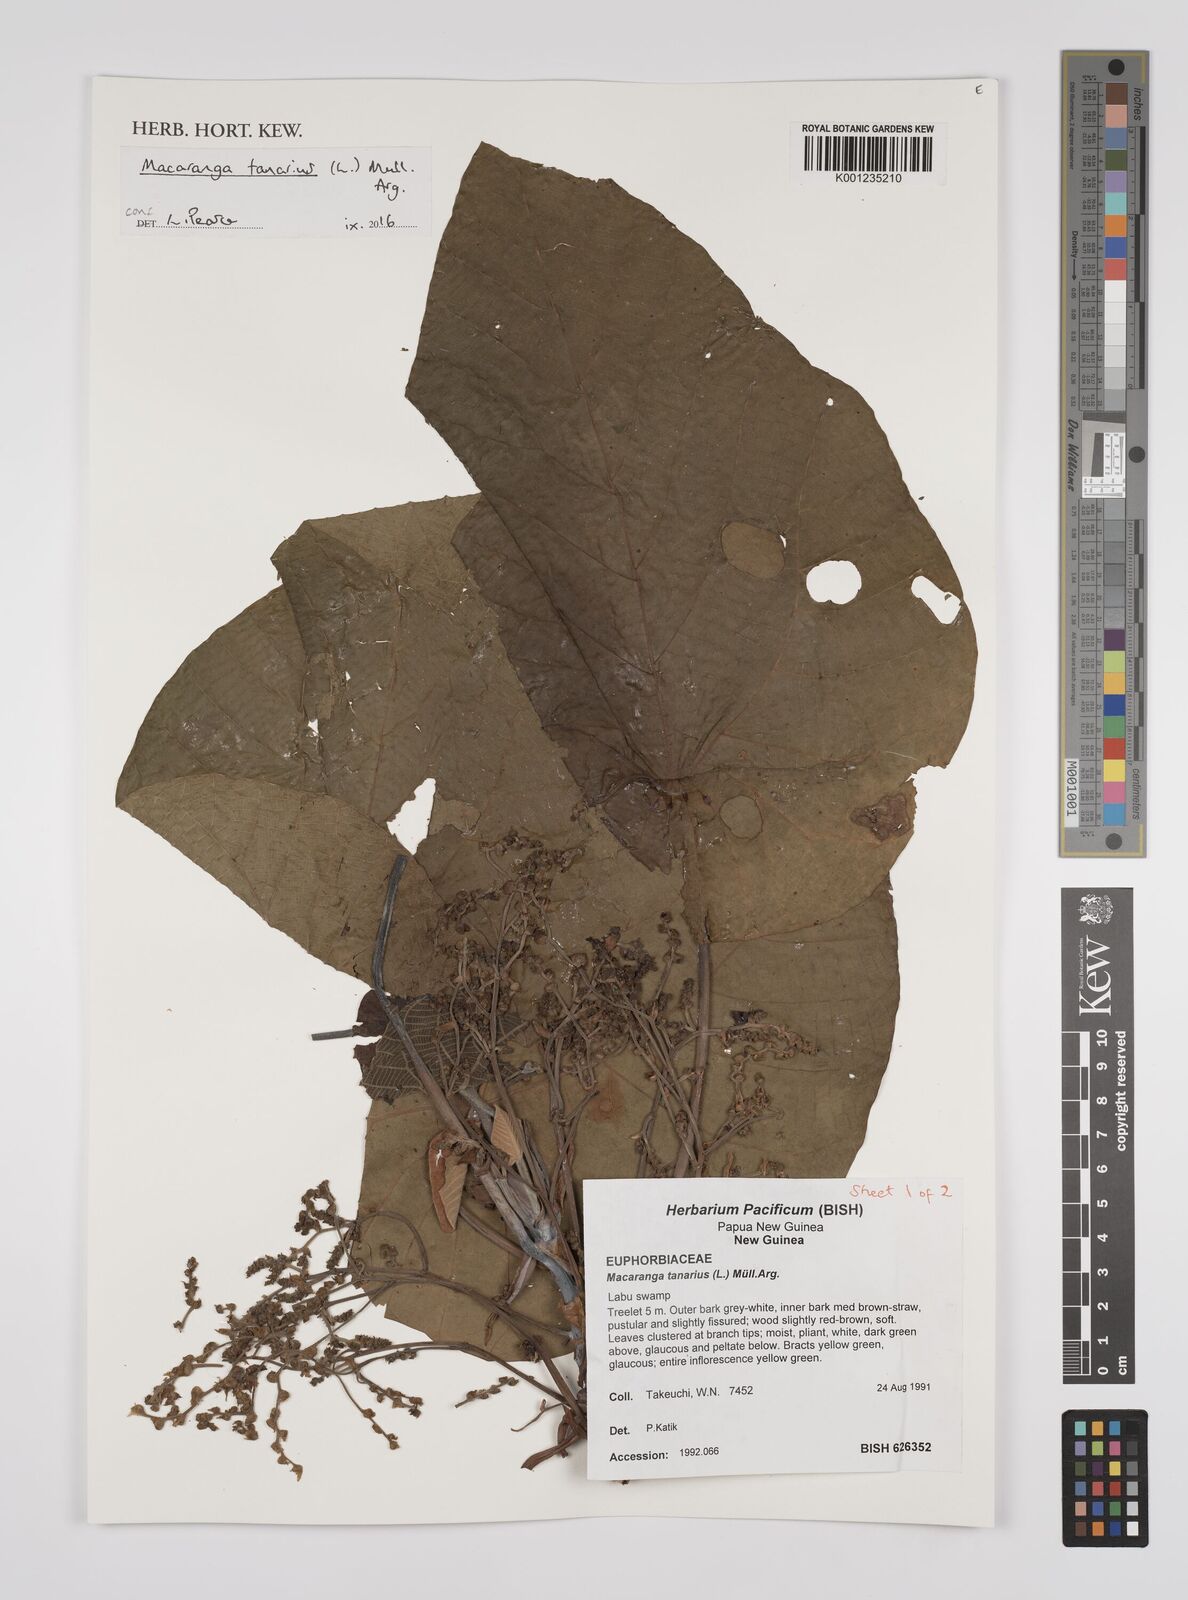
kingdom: Plantae
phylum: Tracheophyta
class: Magnoliopsida
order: Malpighiales
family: Euphorbiaceae
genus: Macaranga
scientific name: Macaranga tanarius
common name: Parasol leaf tree
